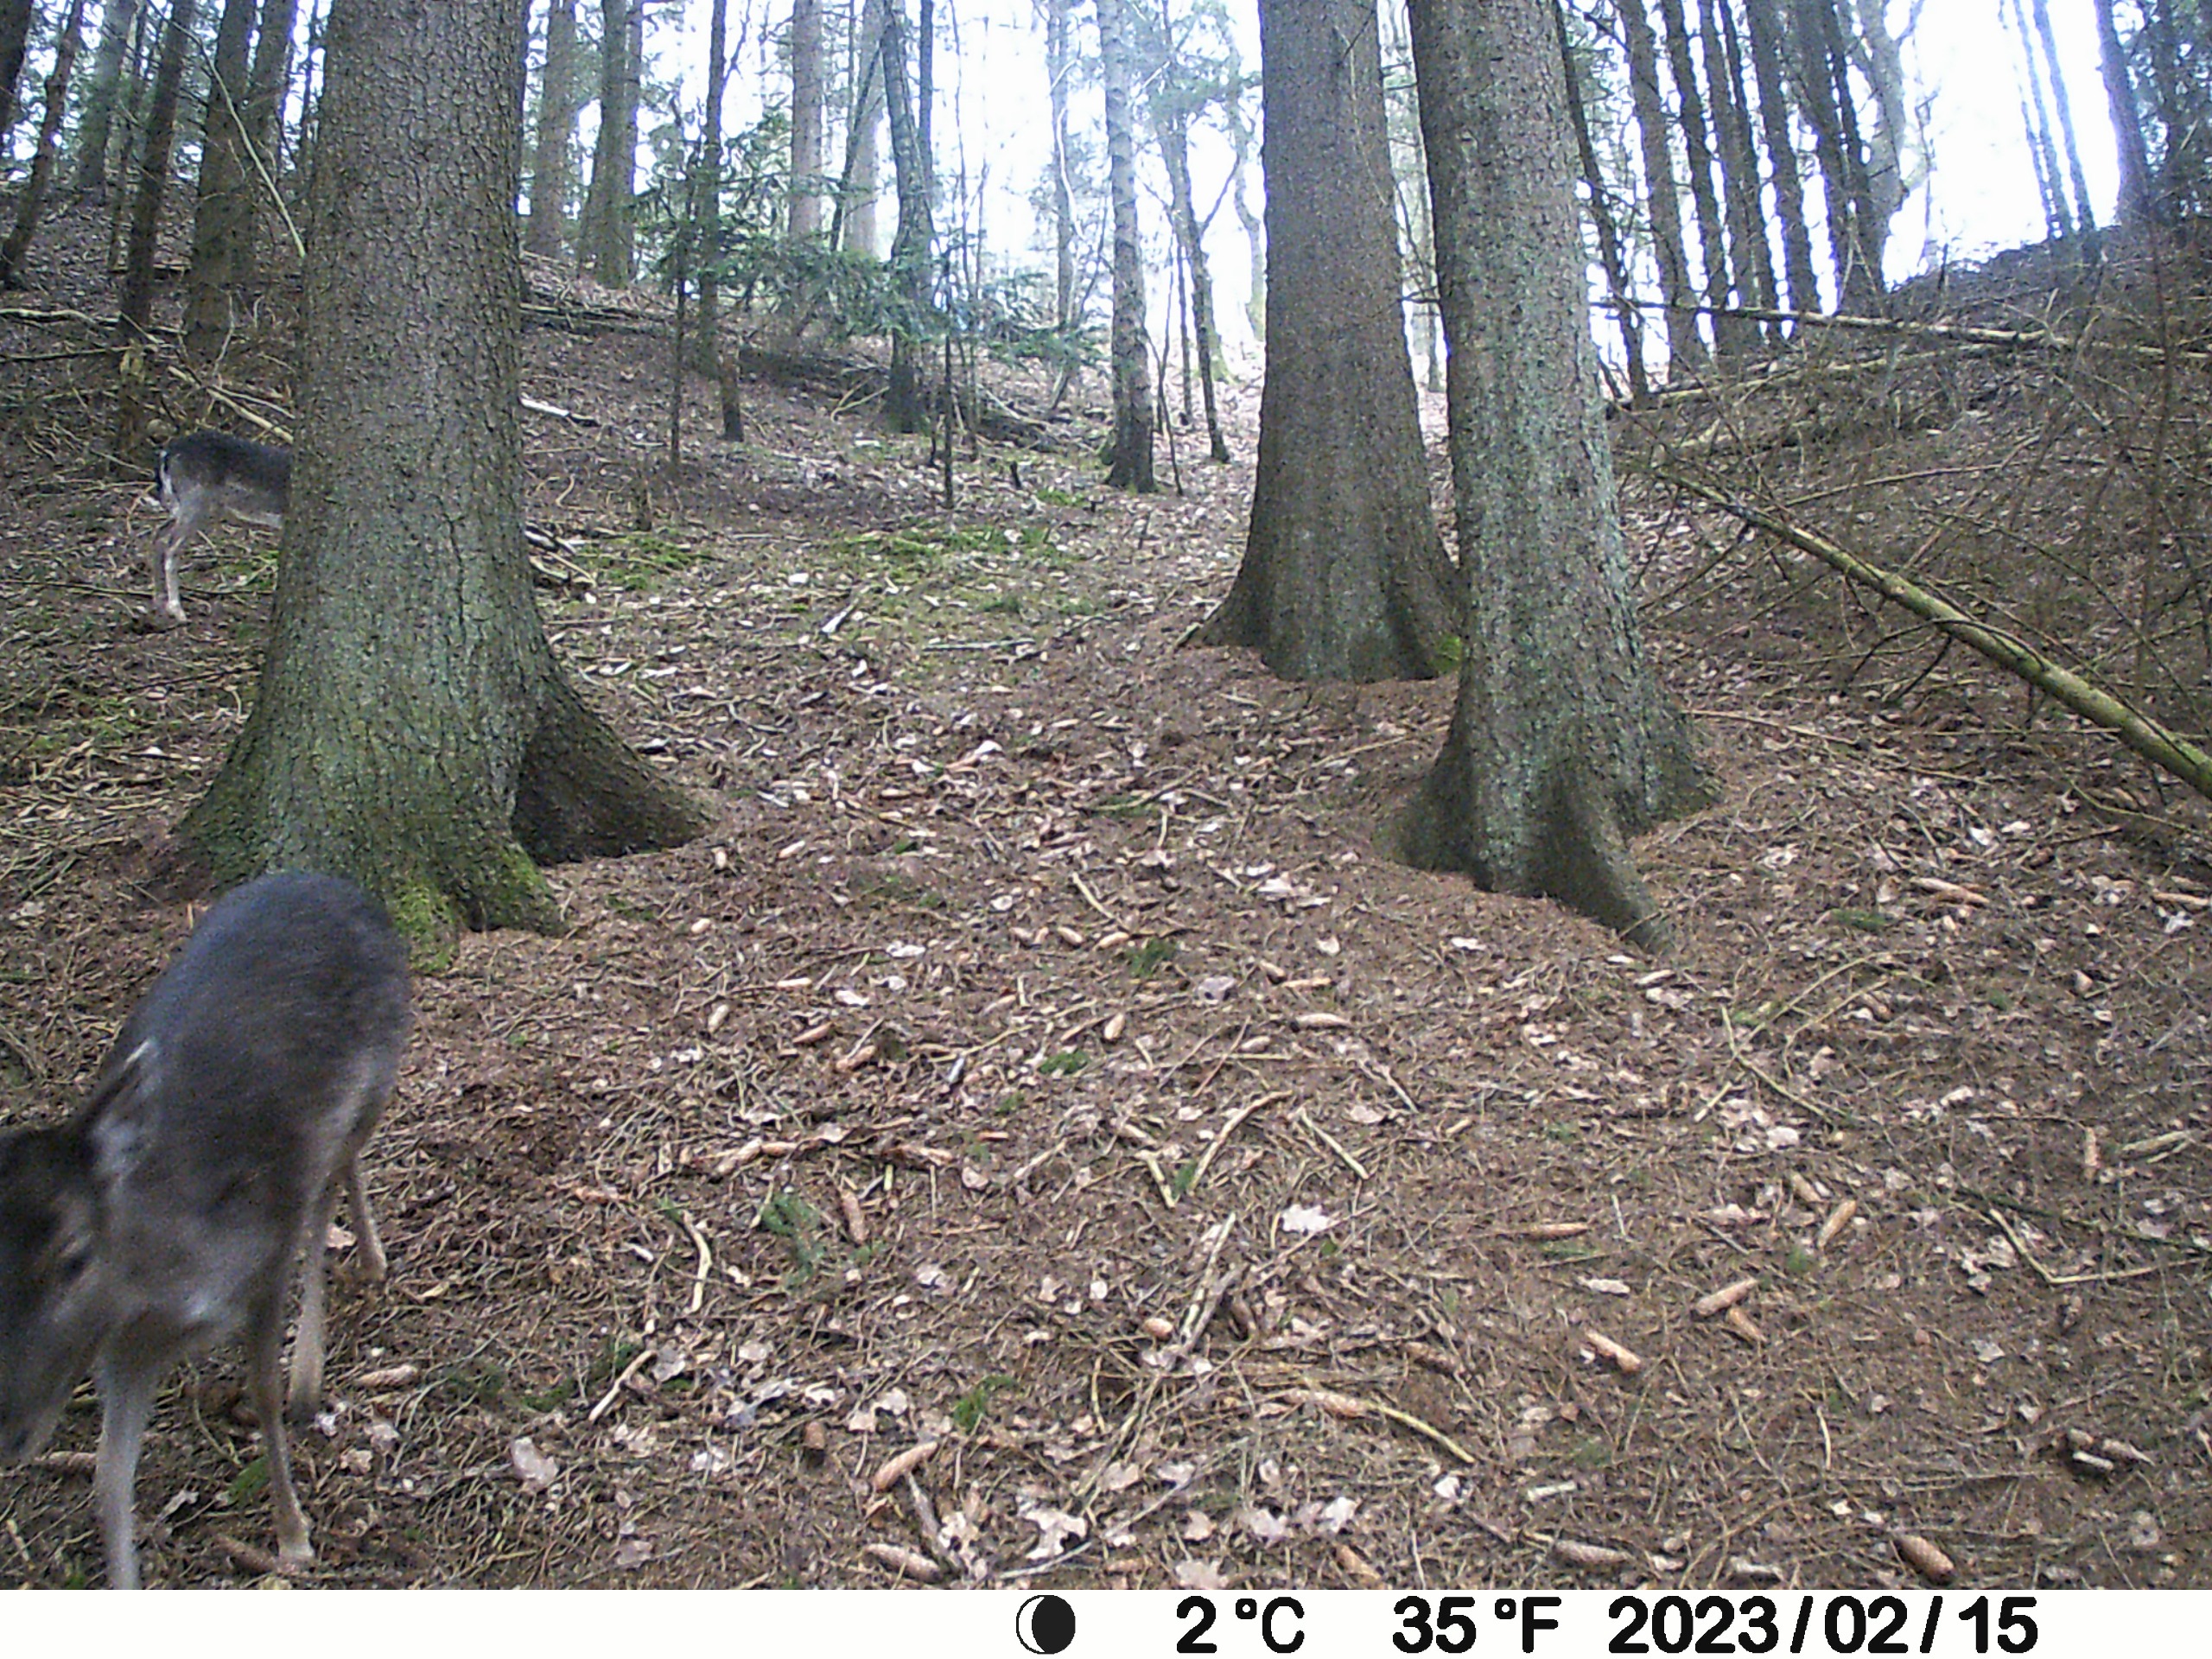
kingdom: Animalia
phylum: Chordata
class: Mammalia
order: Artiodactyla
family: Cervidae
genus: Dama
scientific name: Dama dama
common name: Dådyr
